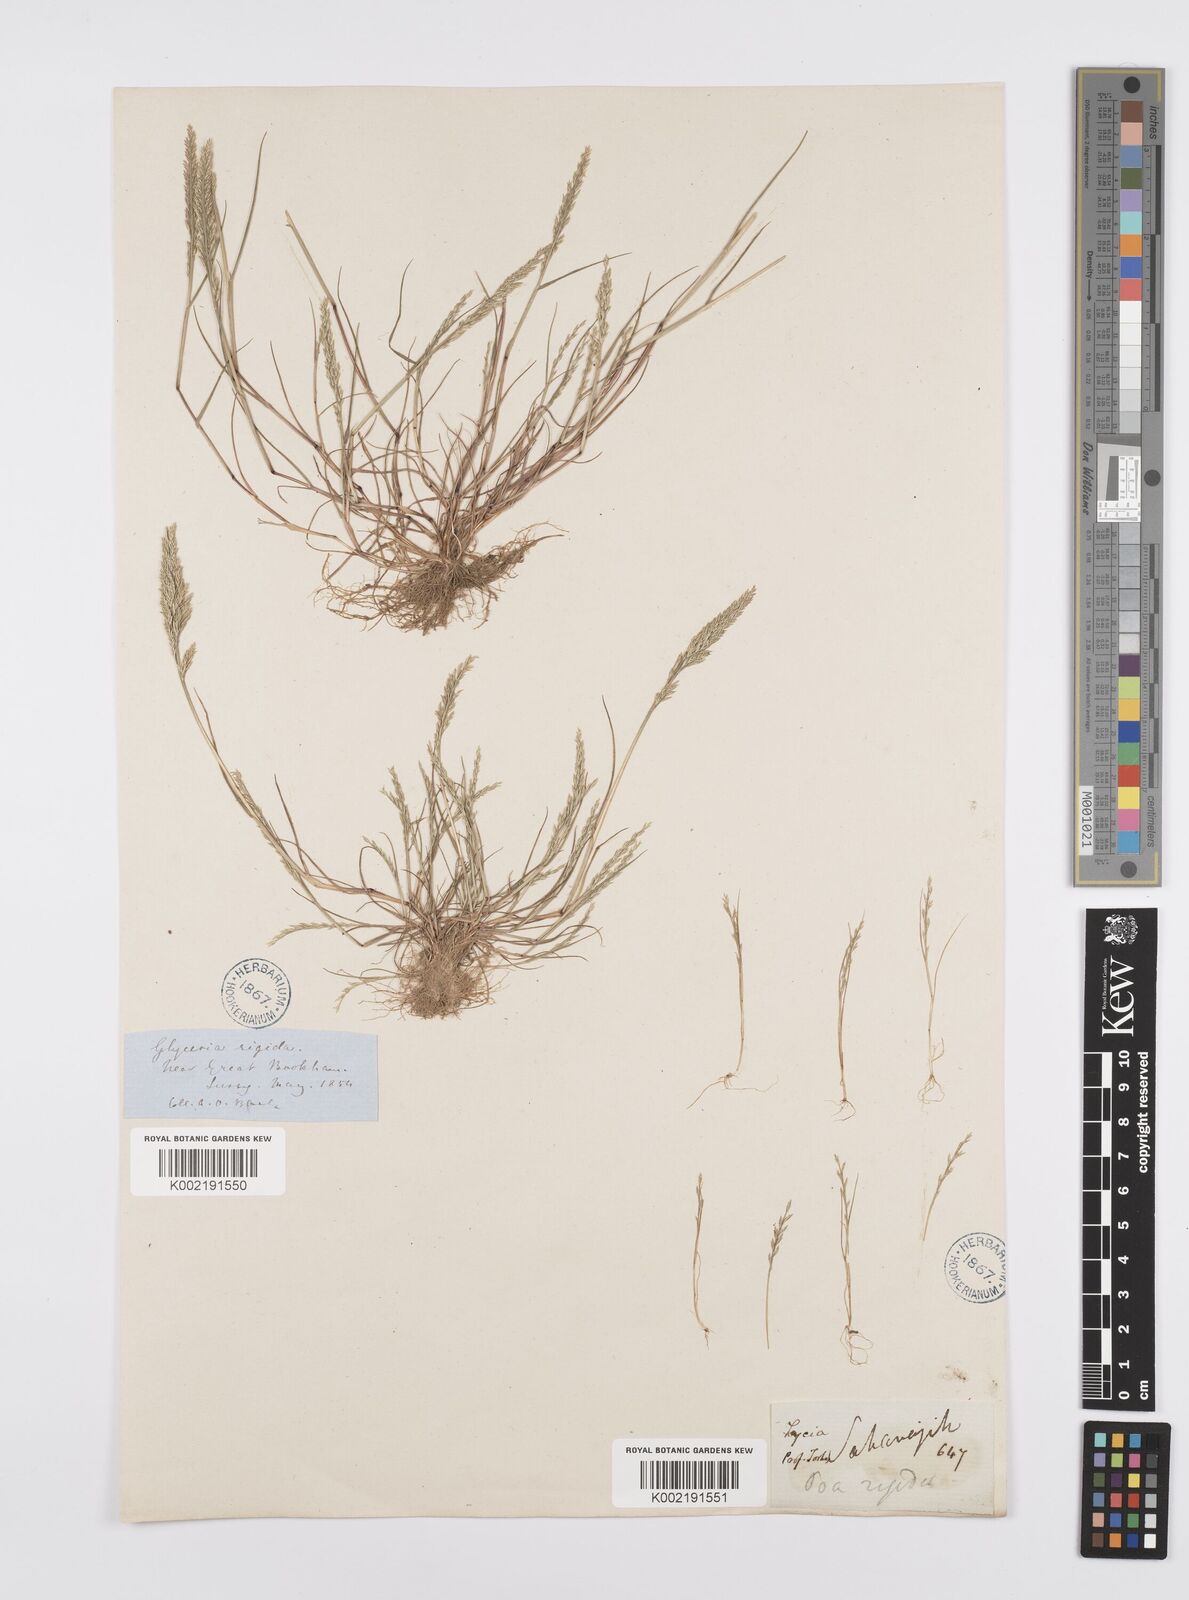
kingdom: Plantae
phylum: Tracheophyta
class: Liliopsida
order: Poales
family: Poaceae
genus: Catapodium
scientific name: Catapodium rigidum
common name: Fern-grass
